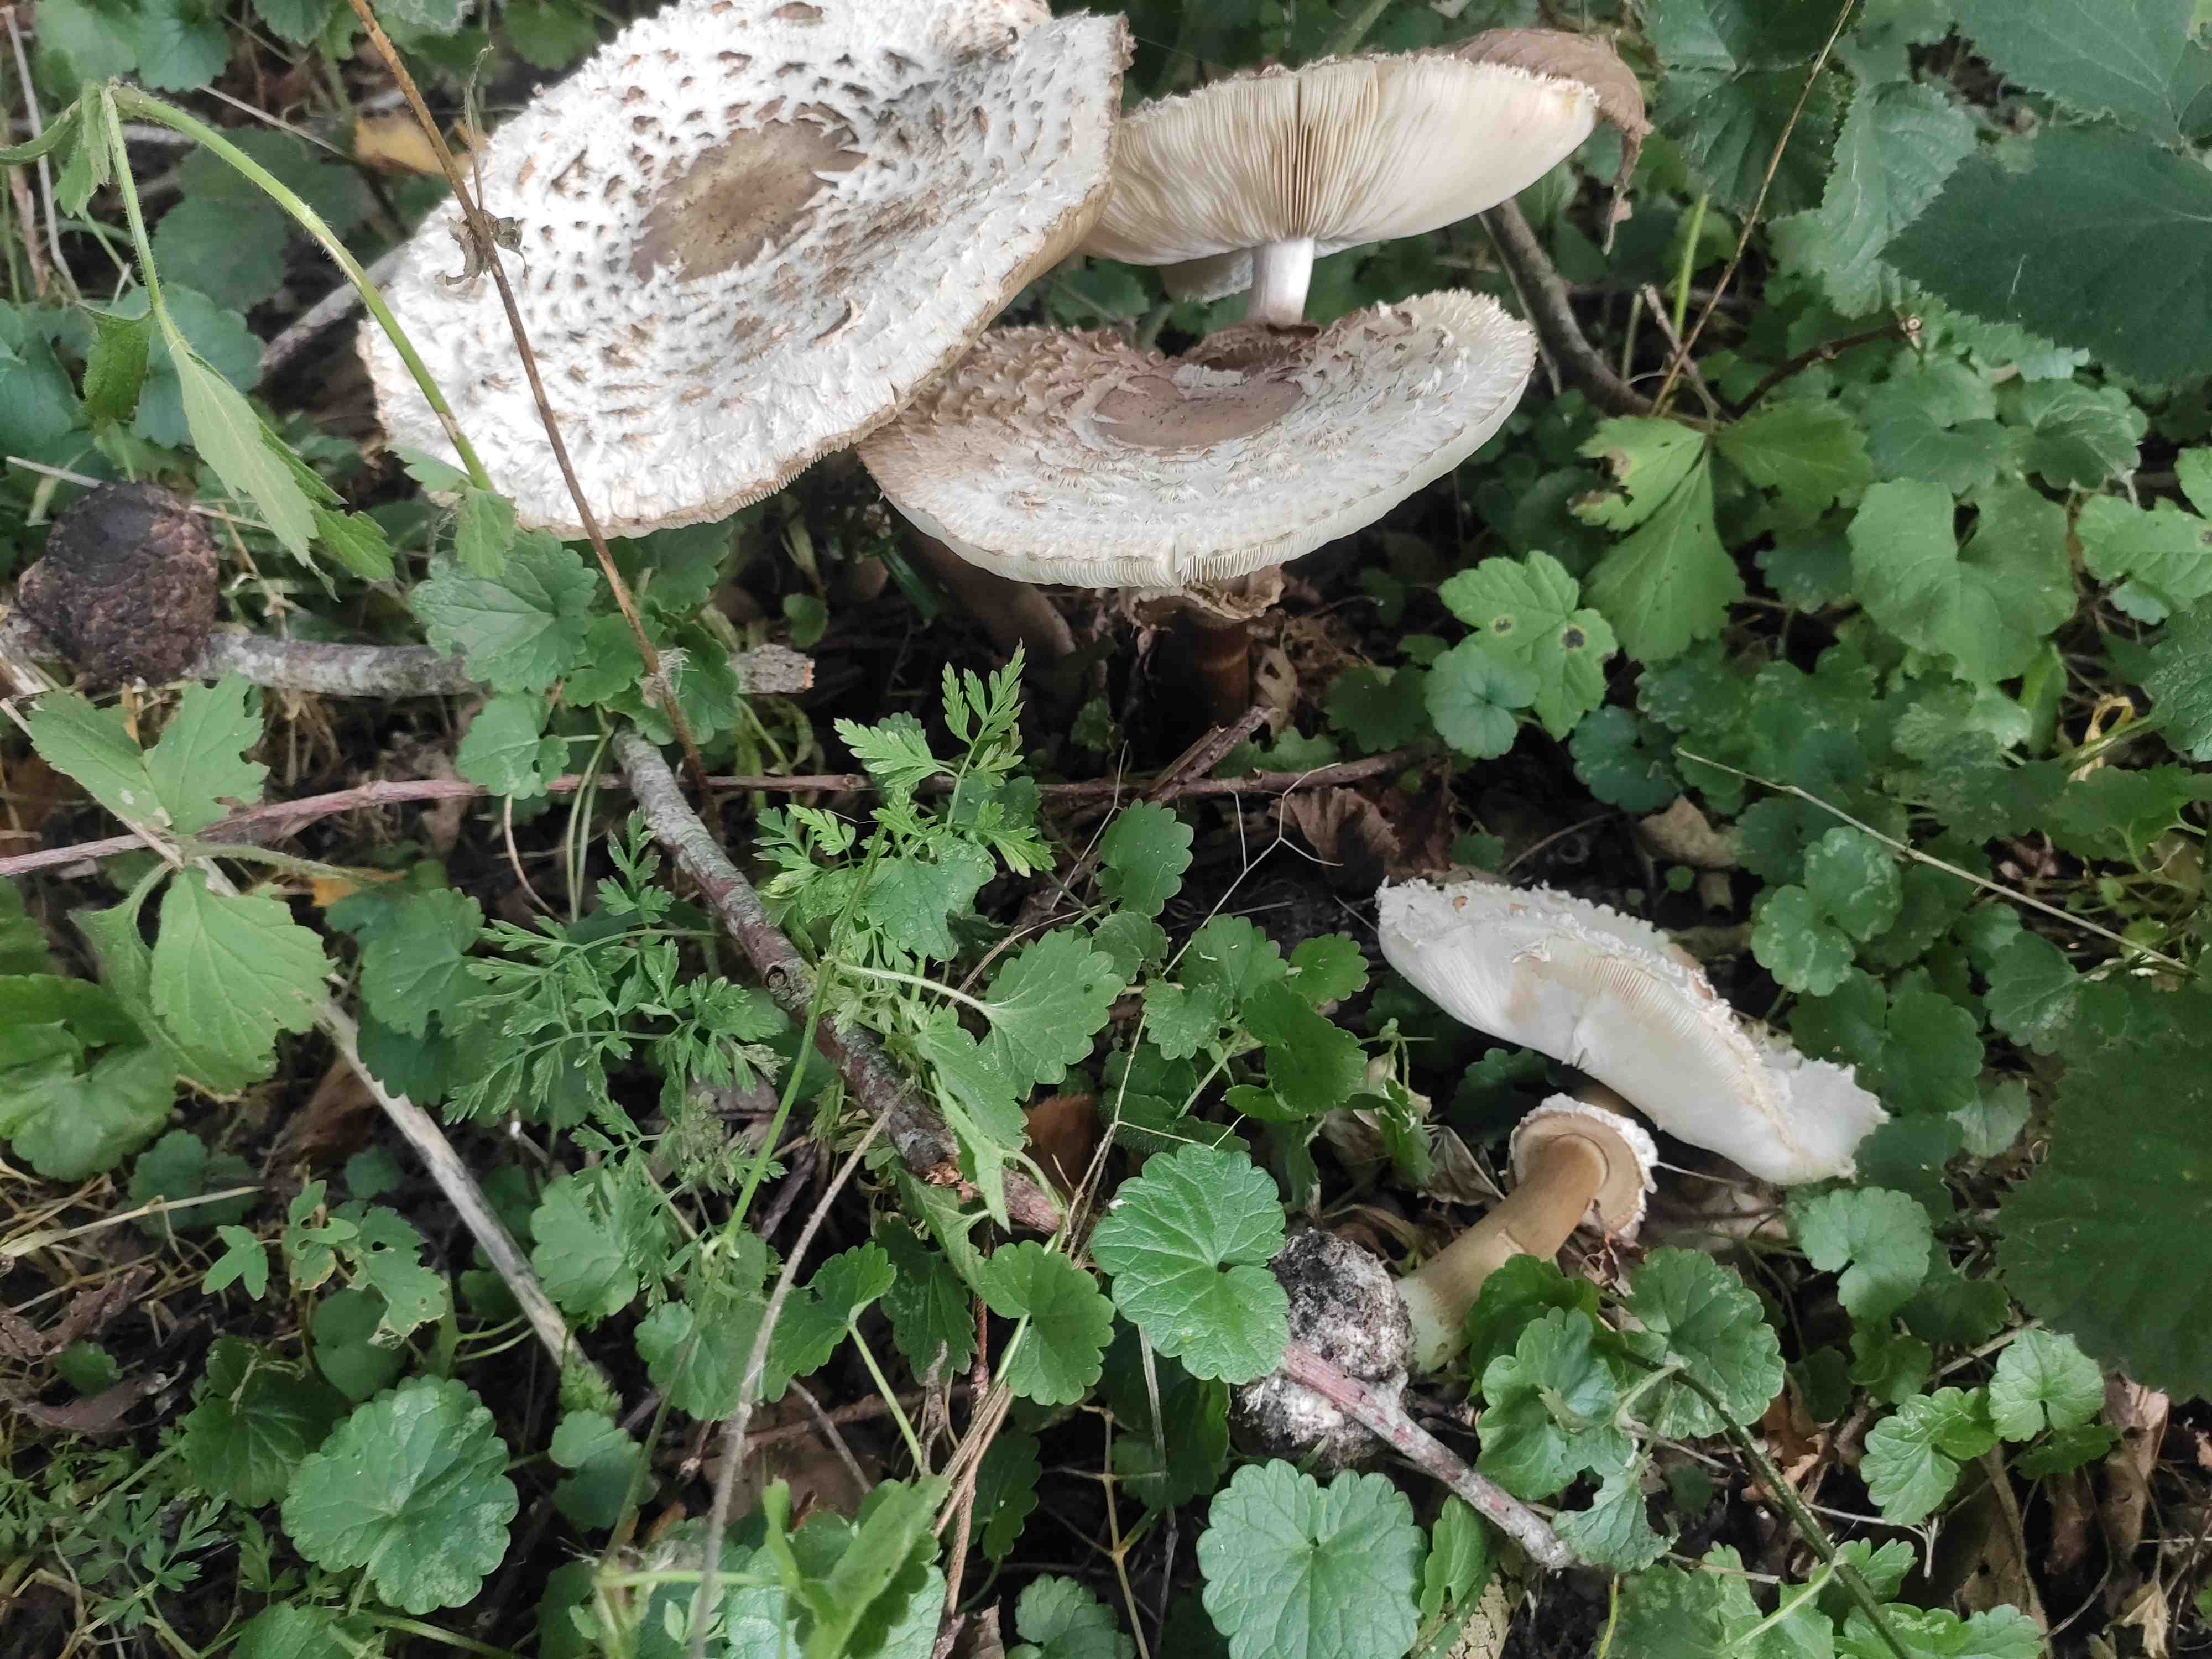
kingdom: Fungi
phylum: Basidiomycota
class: Agaricomycetes
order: Agaricales
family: Agaricaceae
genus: Chlorophyllum
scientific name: Chlorophyllum
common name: rabarberhat
